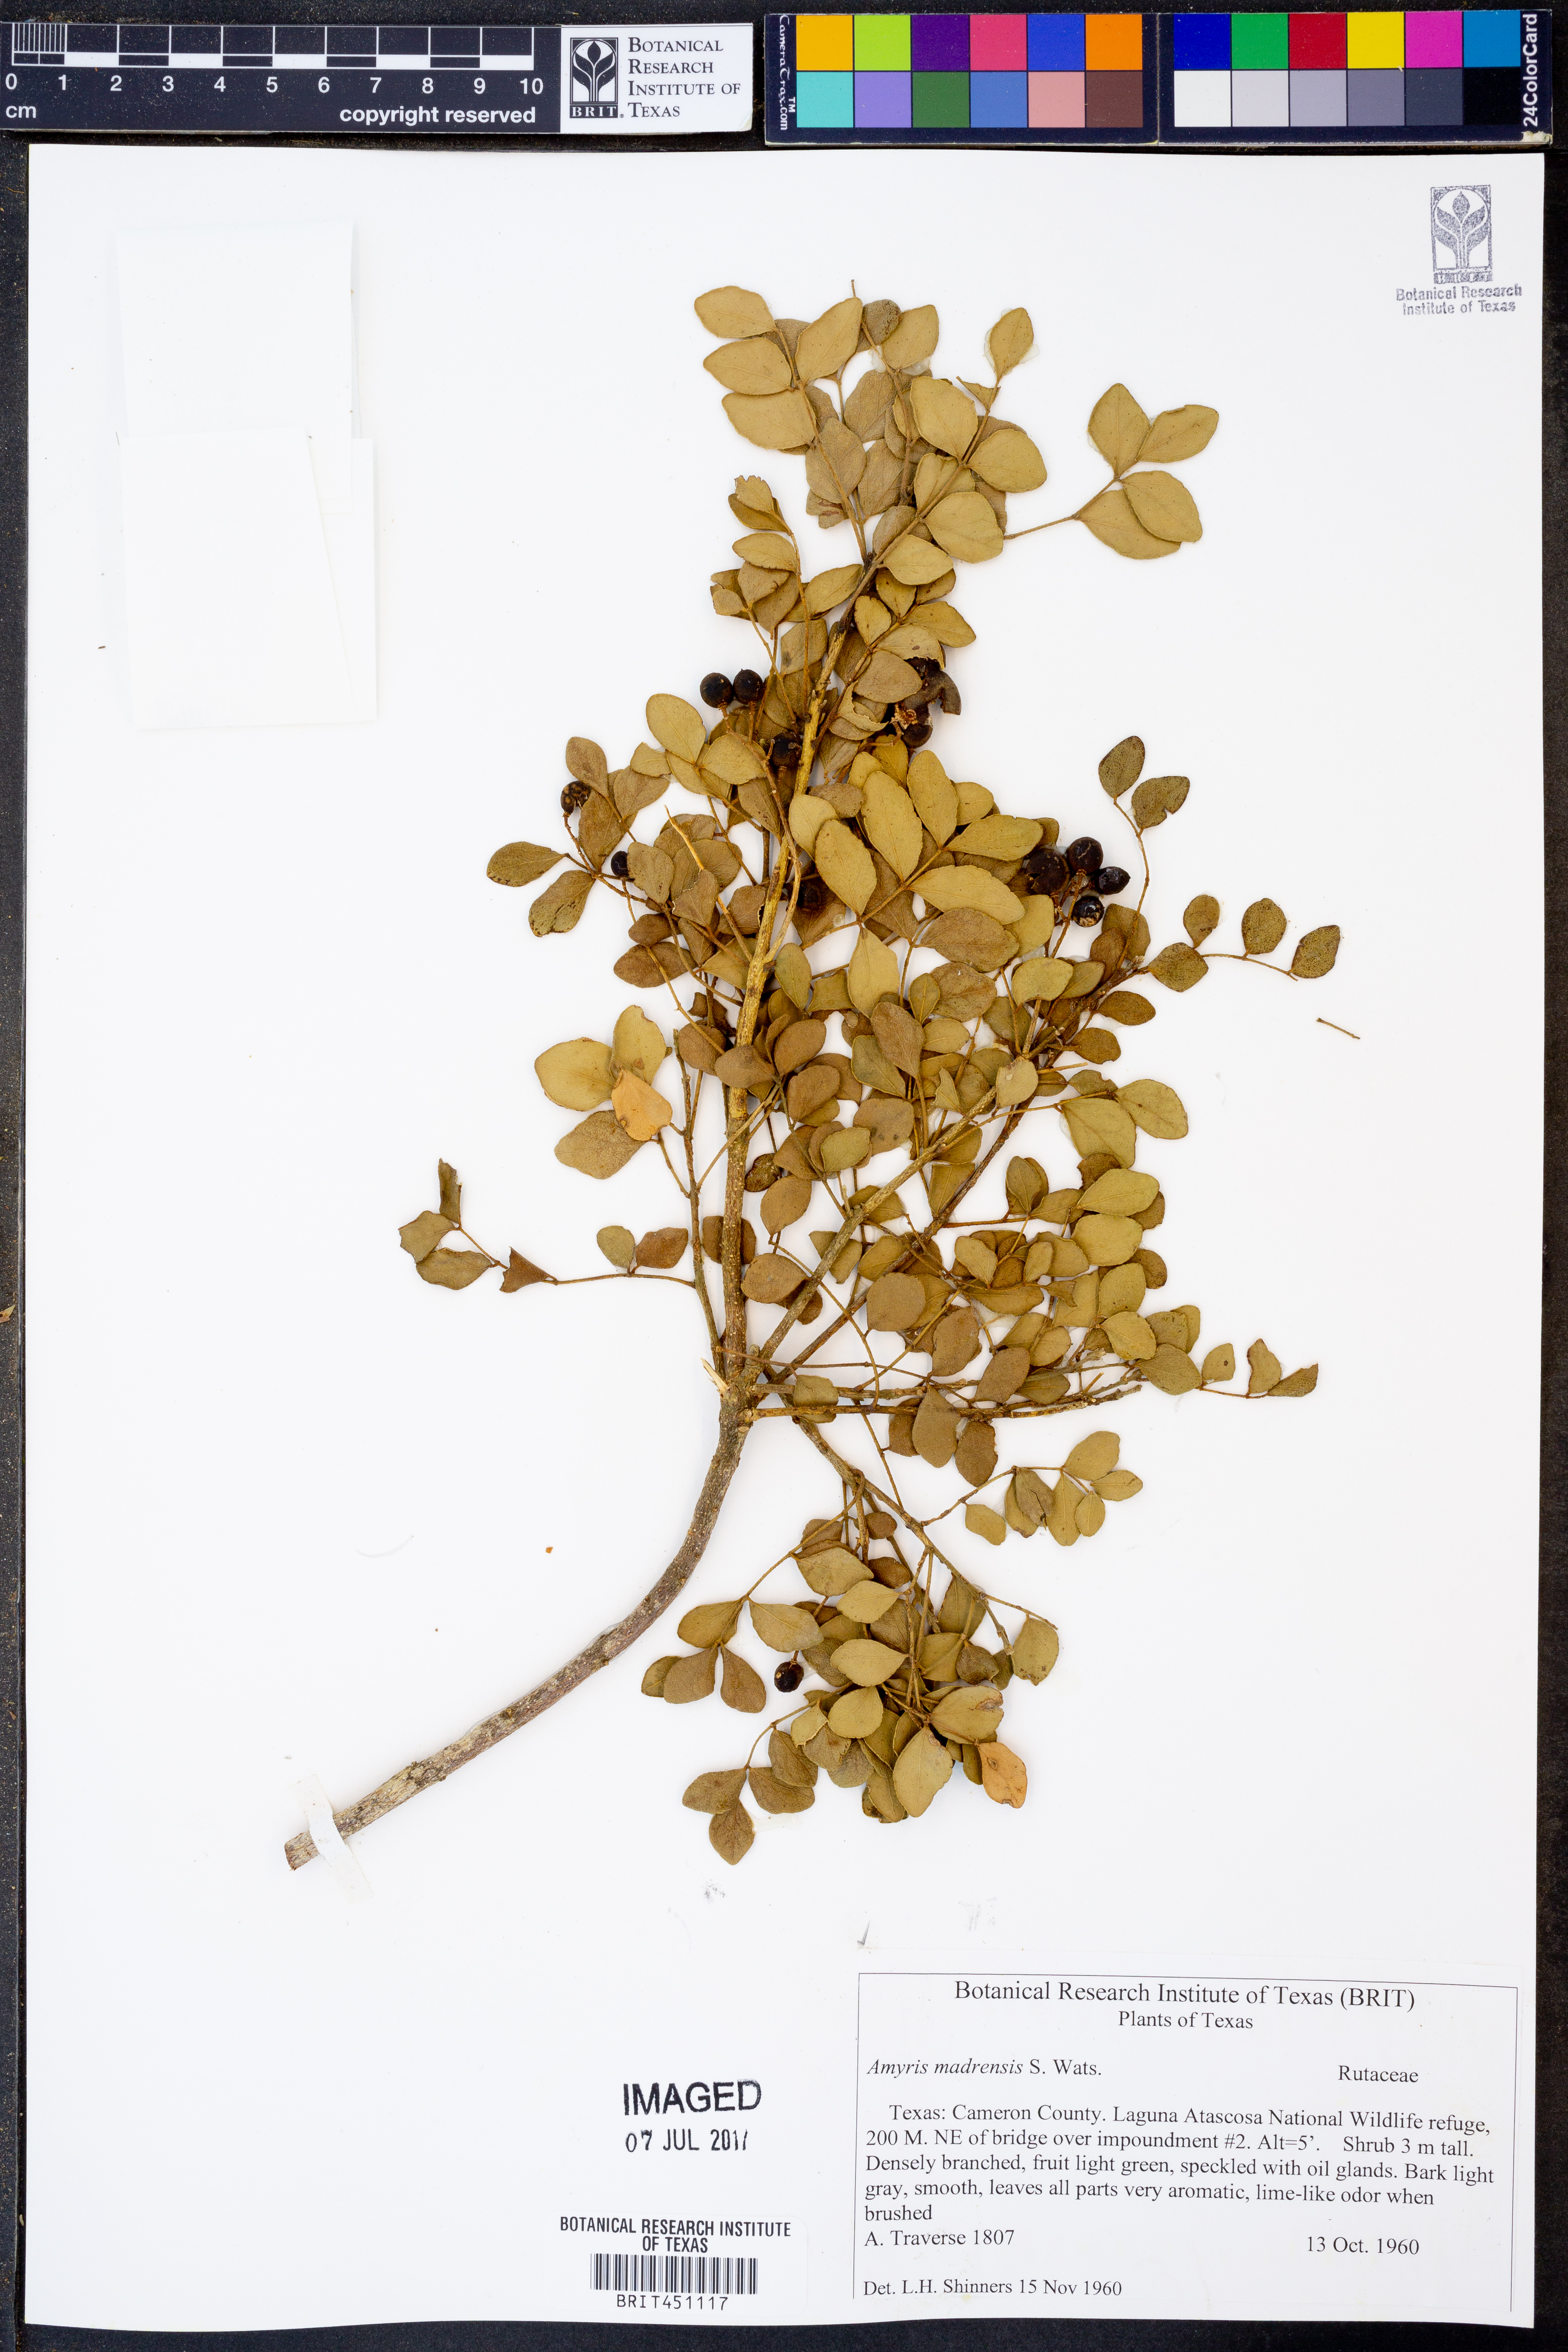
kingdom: Plantae
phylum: Tracheophyta
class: Magnoliopsida
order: Sapindales
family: Rutaceae
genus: Amyris
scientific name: Amyris madrensis
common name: Mountain torchwood
